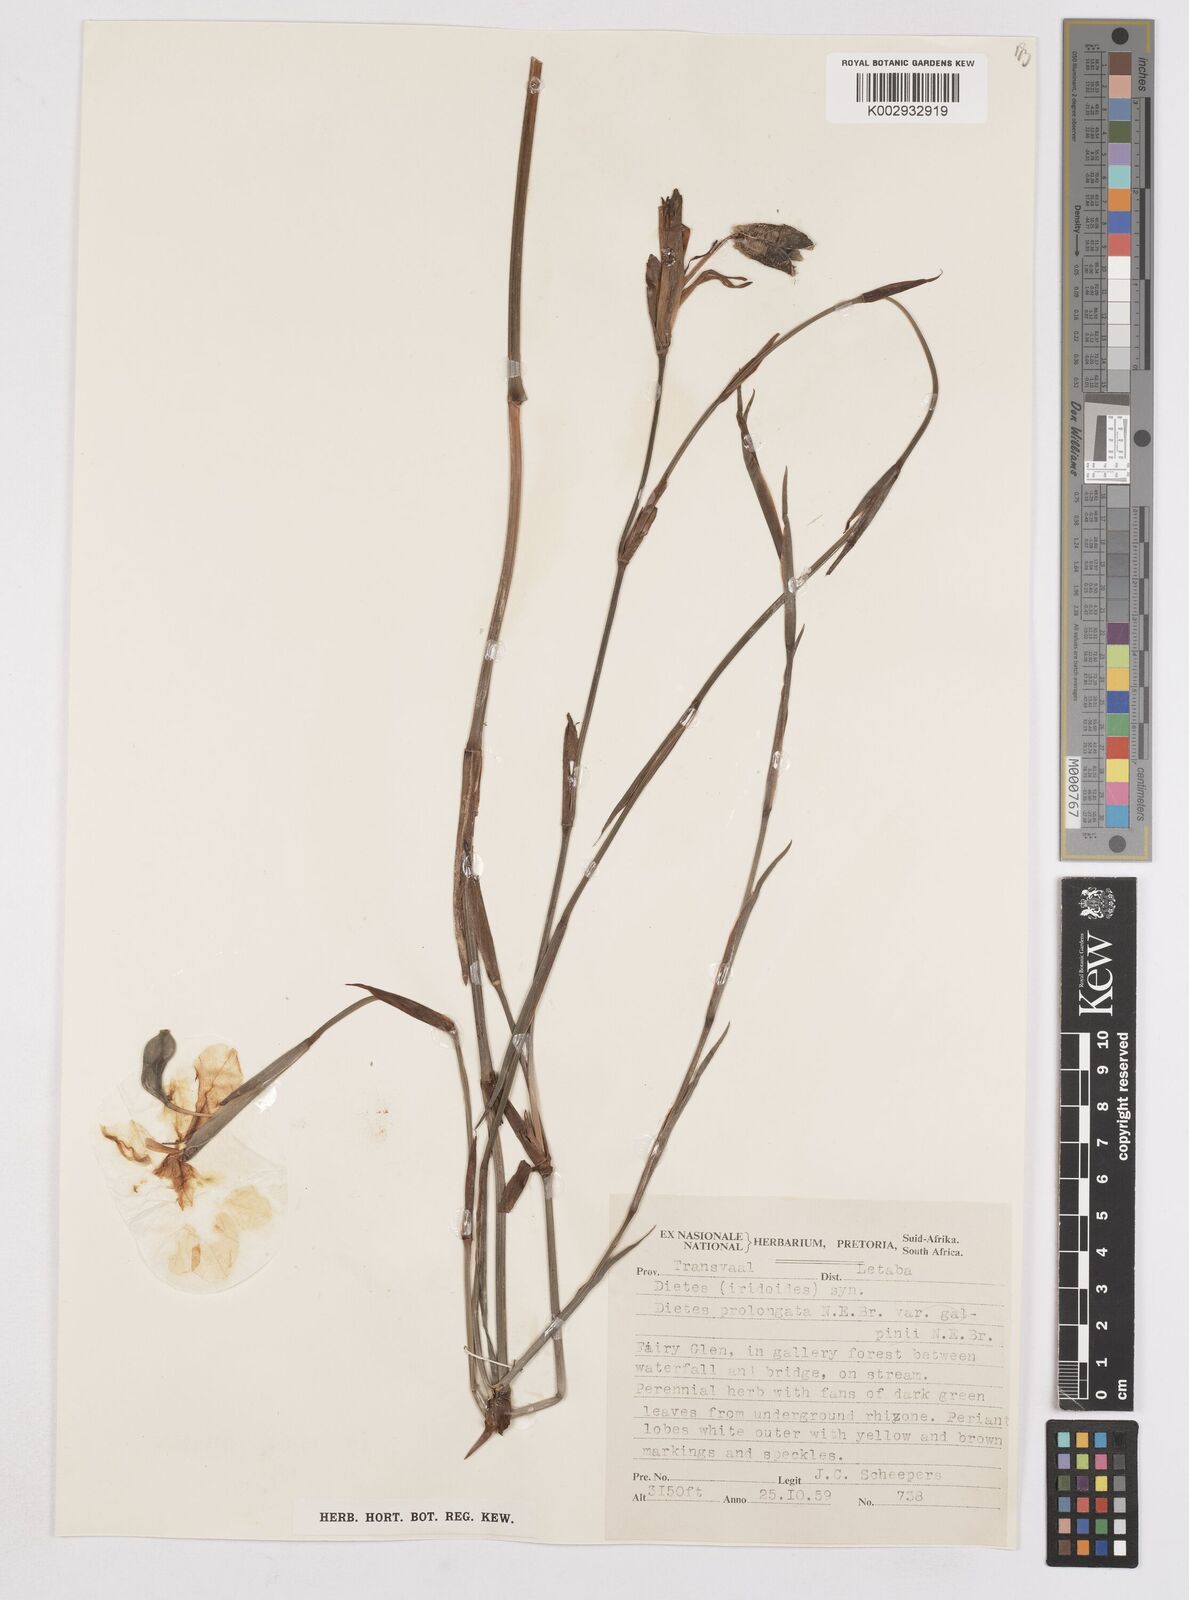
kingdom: Plantae
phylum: Tracheophyta
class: Liliopsida
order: Asparagales
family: Iridaceae
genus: Dietes
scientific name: Dietes iridioides
